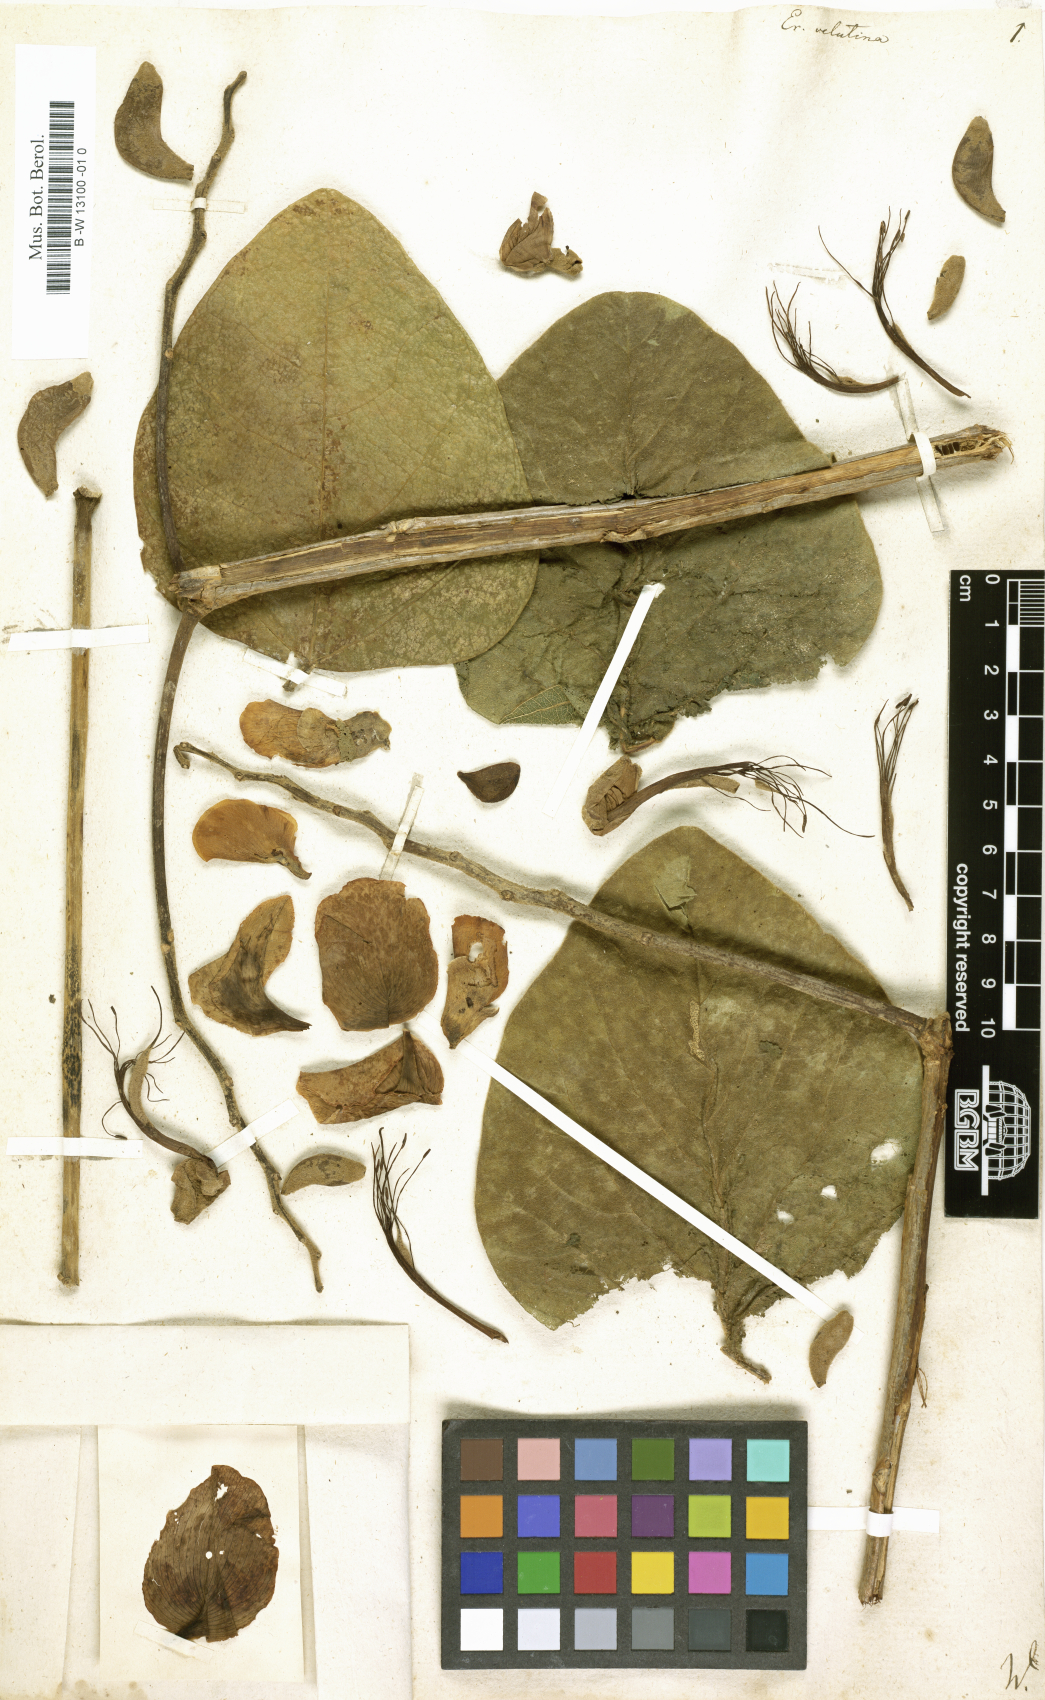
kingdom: Plantae
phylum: Tracheophyta
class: Magnoliopsida
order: Fabales
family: Fabaceae
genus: Erythrina
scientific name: Erythrina velutina
